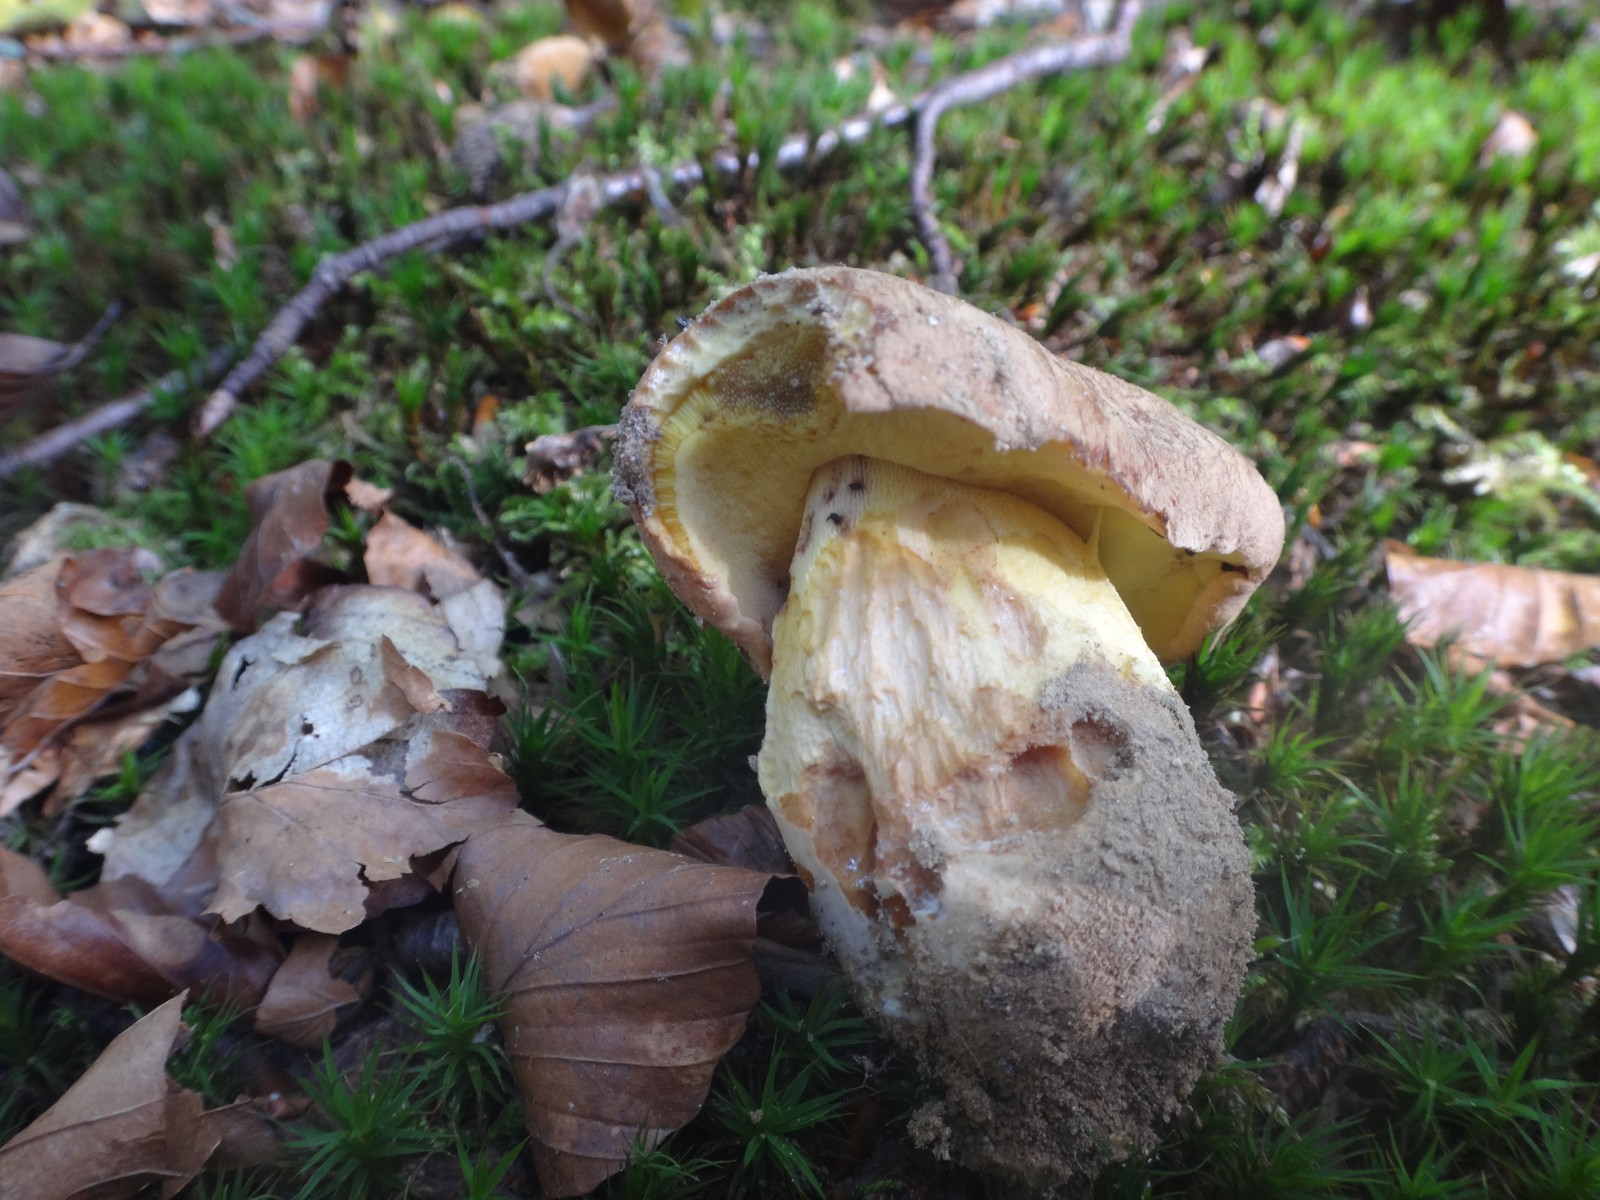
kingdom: Fungi
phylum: Basidiomycota
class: Agaricomycetes
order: Boletales
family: Boletaceae
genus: Butyriboletus
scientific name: Butyriboletus appendiculatus
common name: tenstokket rørhat
